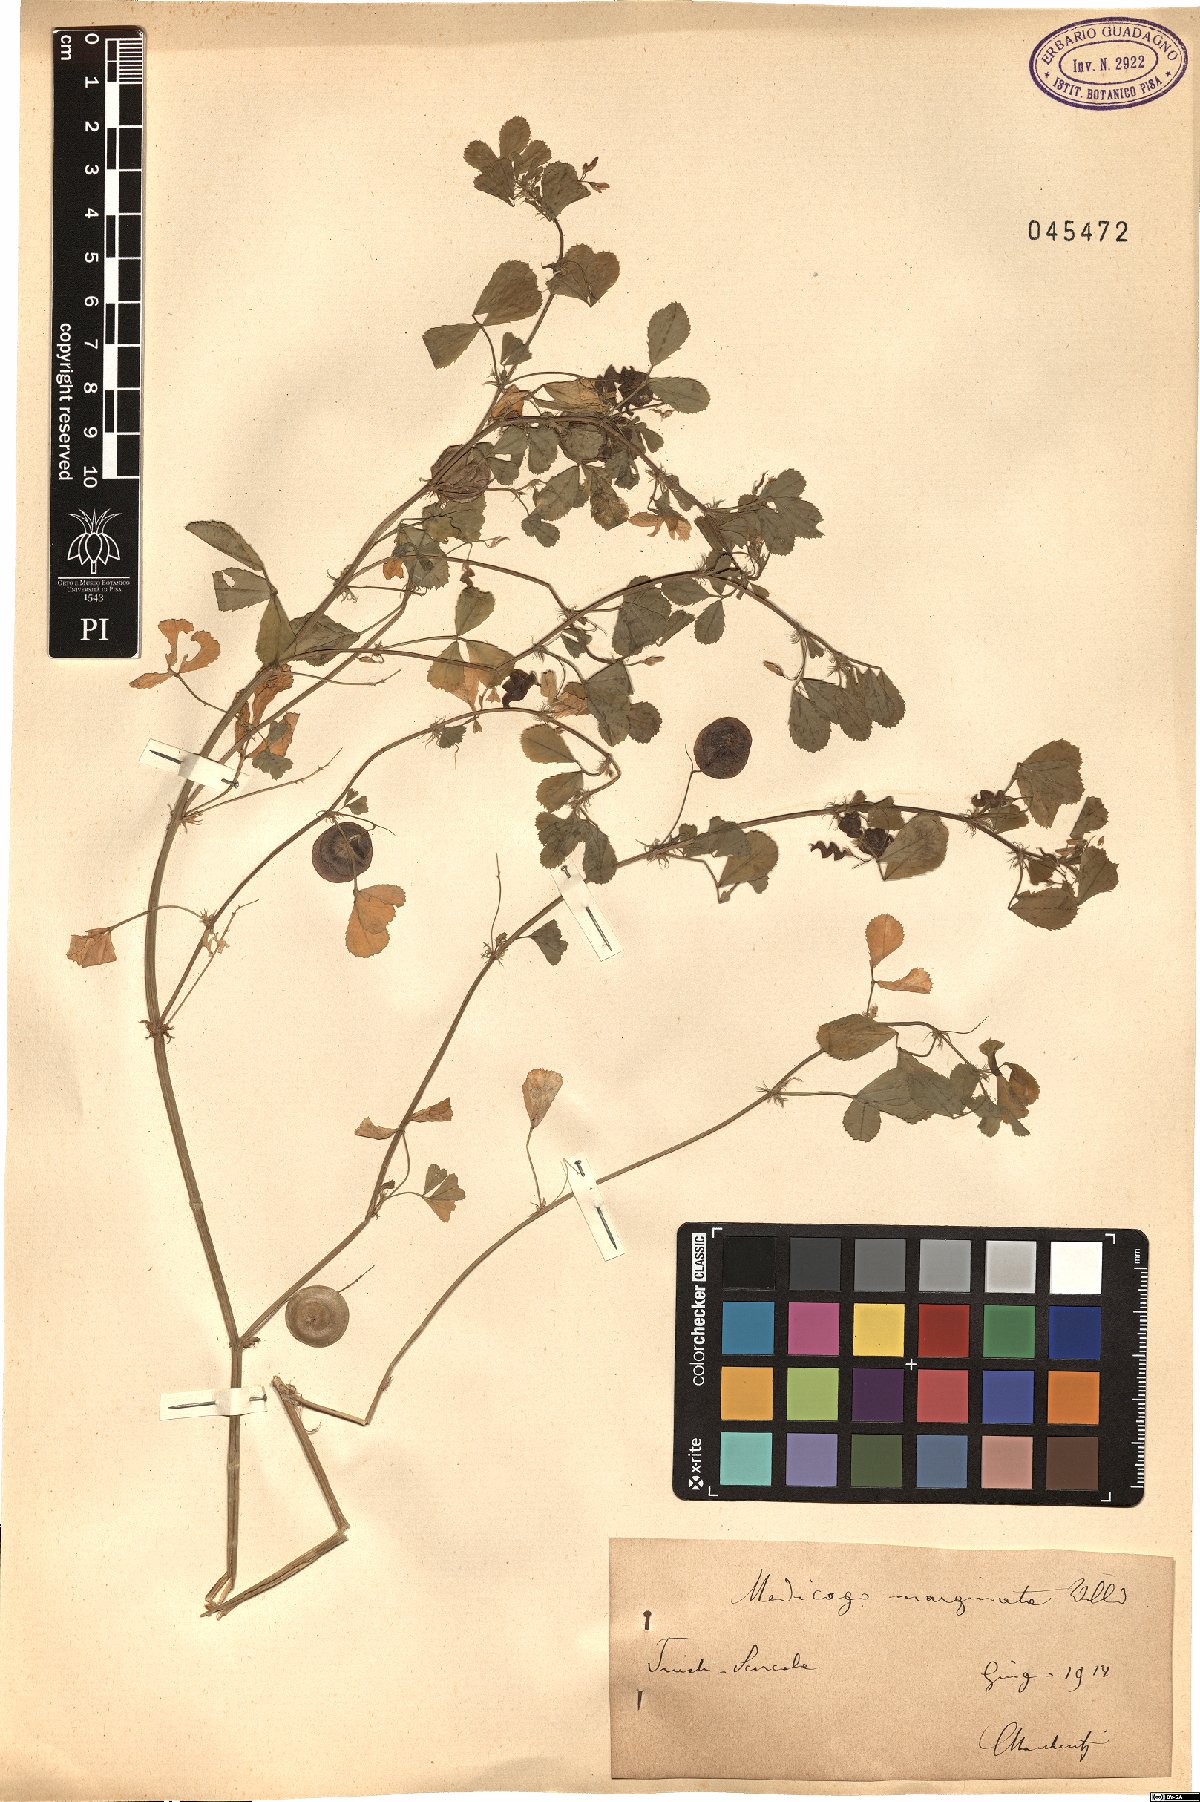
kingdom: Plantae
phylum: Tracheophyta
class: Magnoliopsida
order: Fabales
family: Fabaceae
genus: Medicago
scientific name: Medicago orbicularis
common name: Button medick
